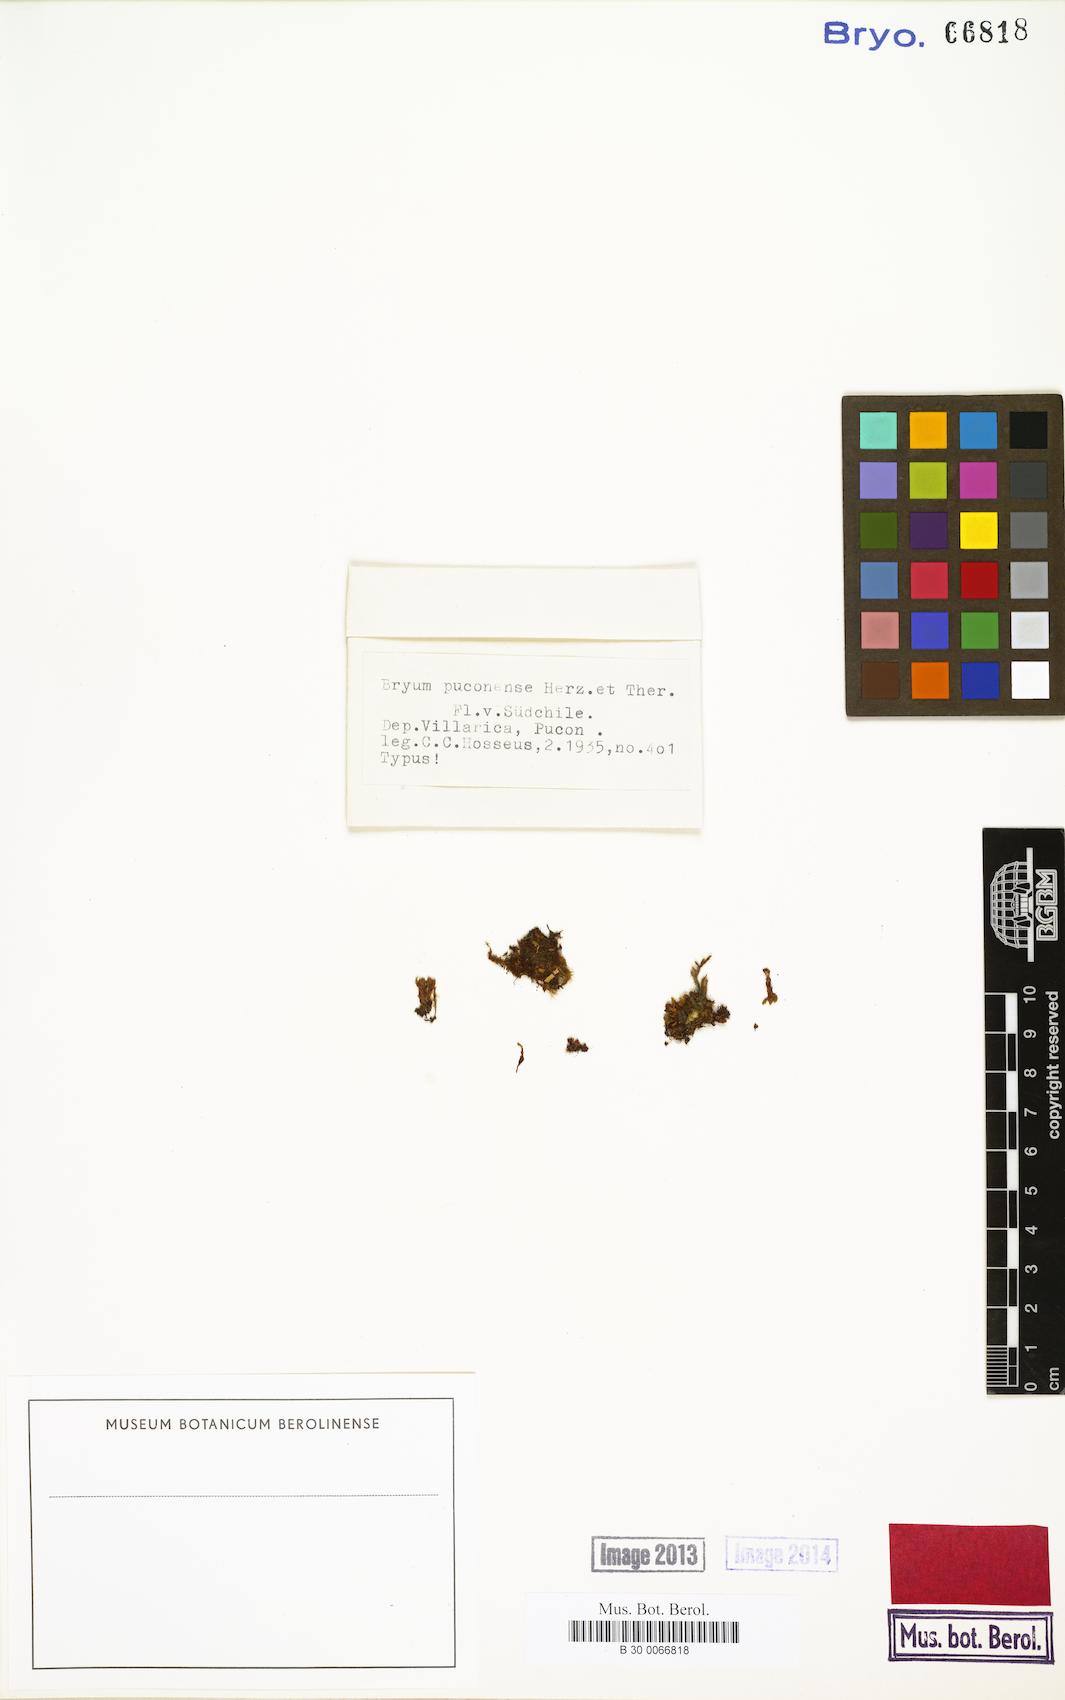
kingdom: Plantae
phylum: Bryophyta
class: Bryopsida
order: Bryales
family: Bryaceae
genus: Rosulabryum
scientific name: Rosulabryum puconense
